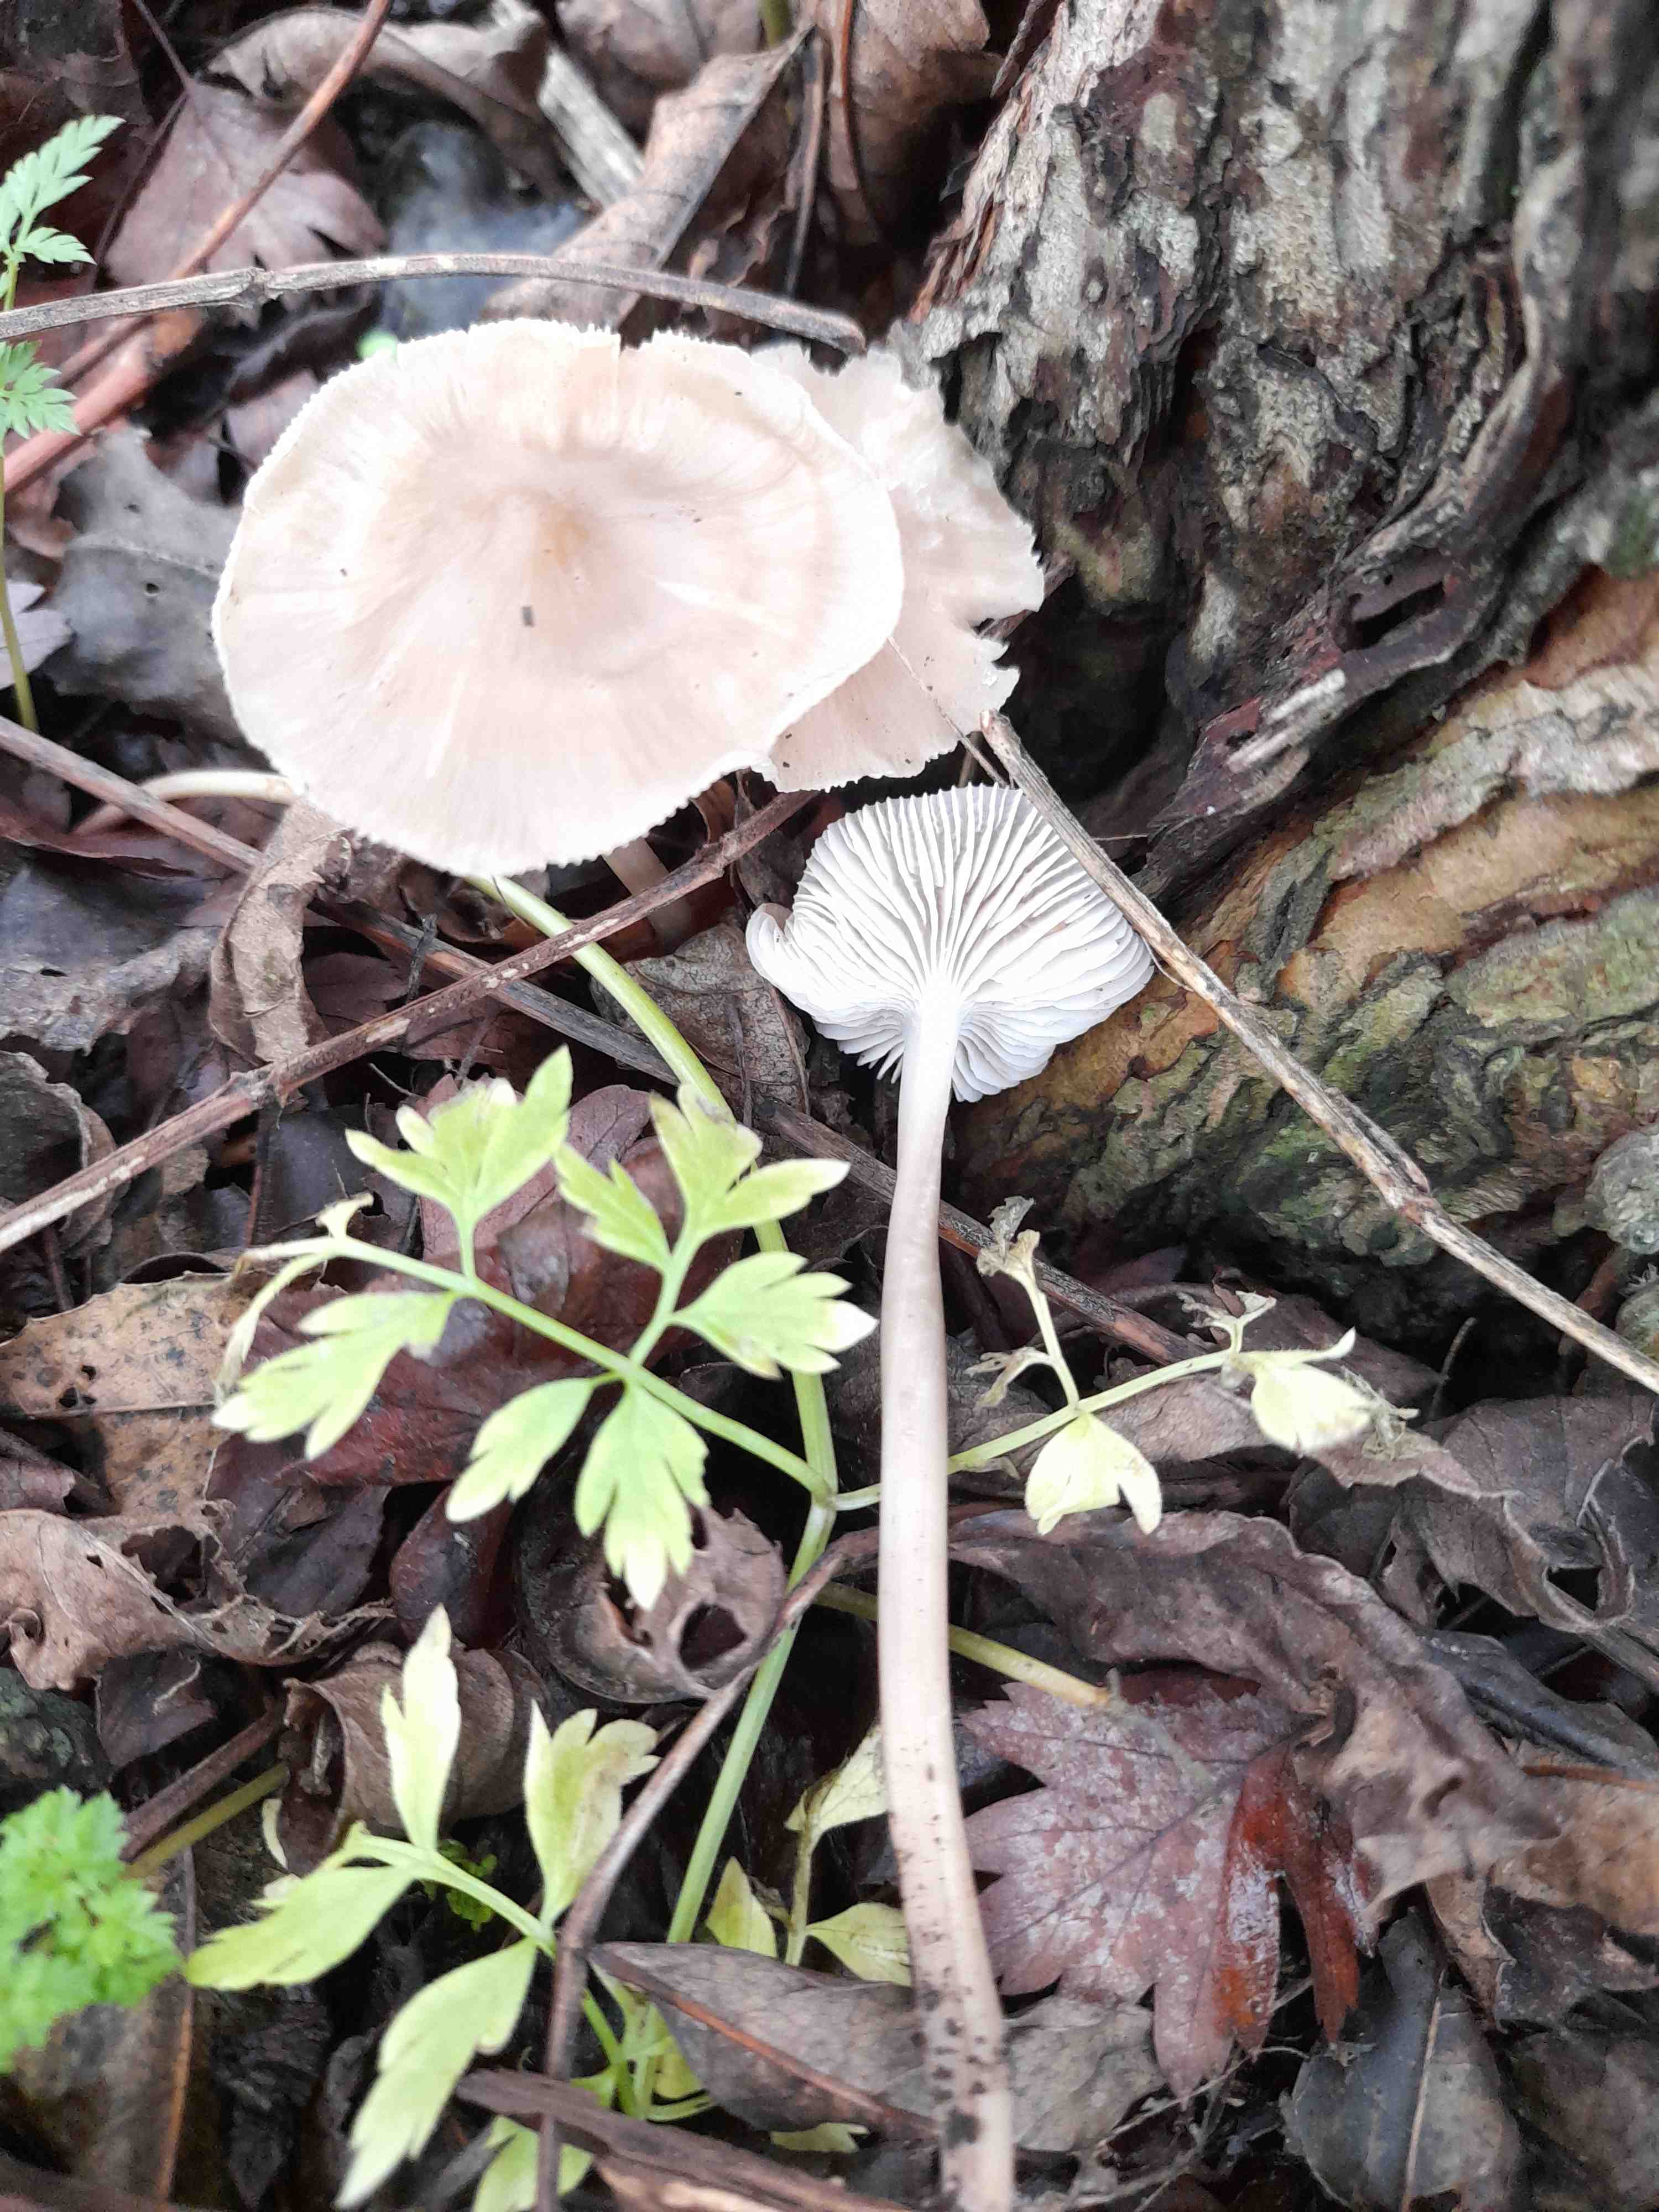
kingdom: Fungi
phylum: Basidiomycota
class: Agaricomycetes
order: Agaricales
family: Mycenaceae
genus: Mycena
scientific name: Mycena galericulata
